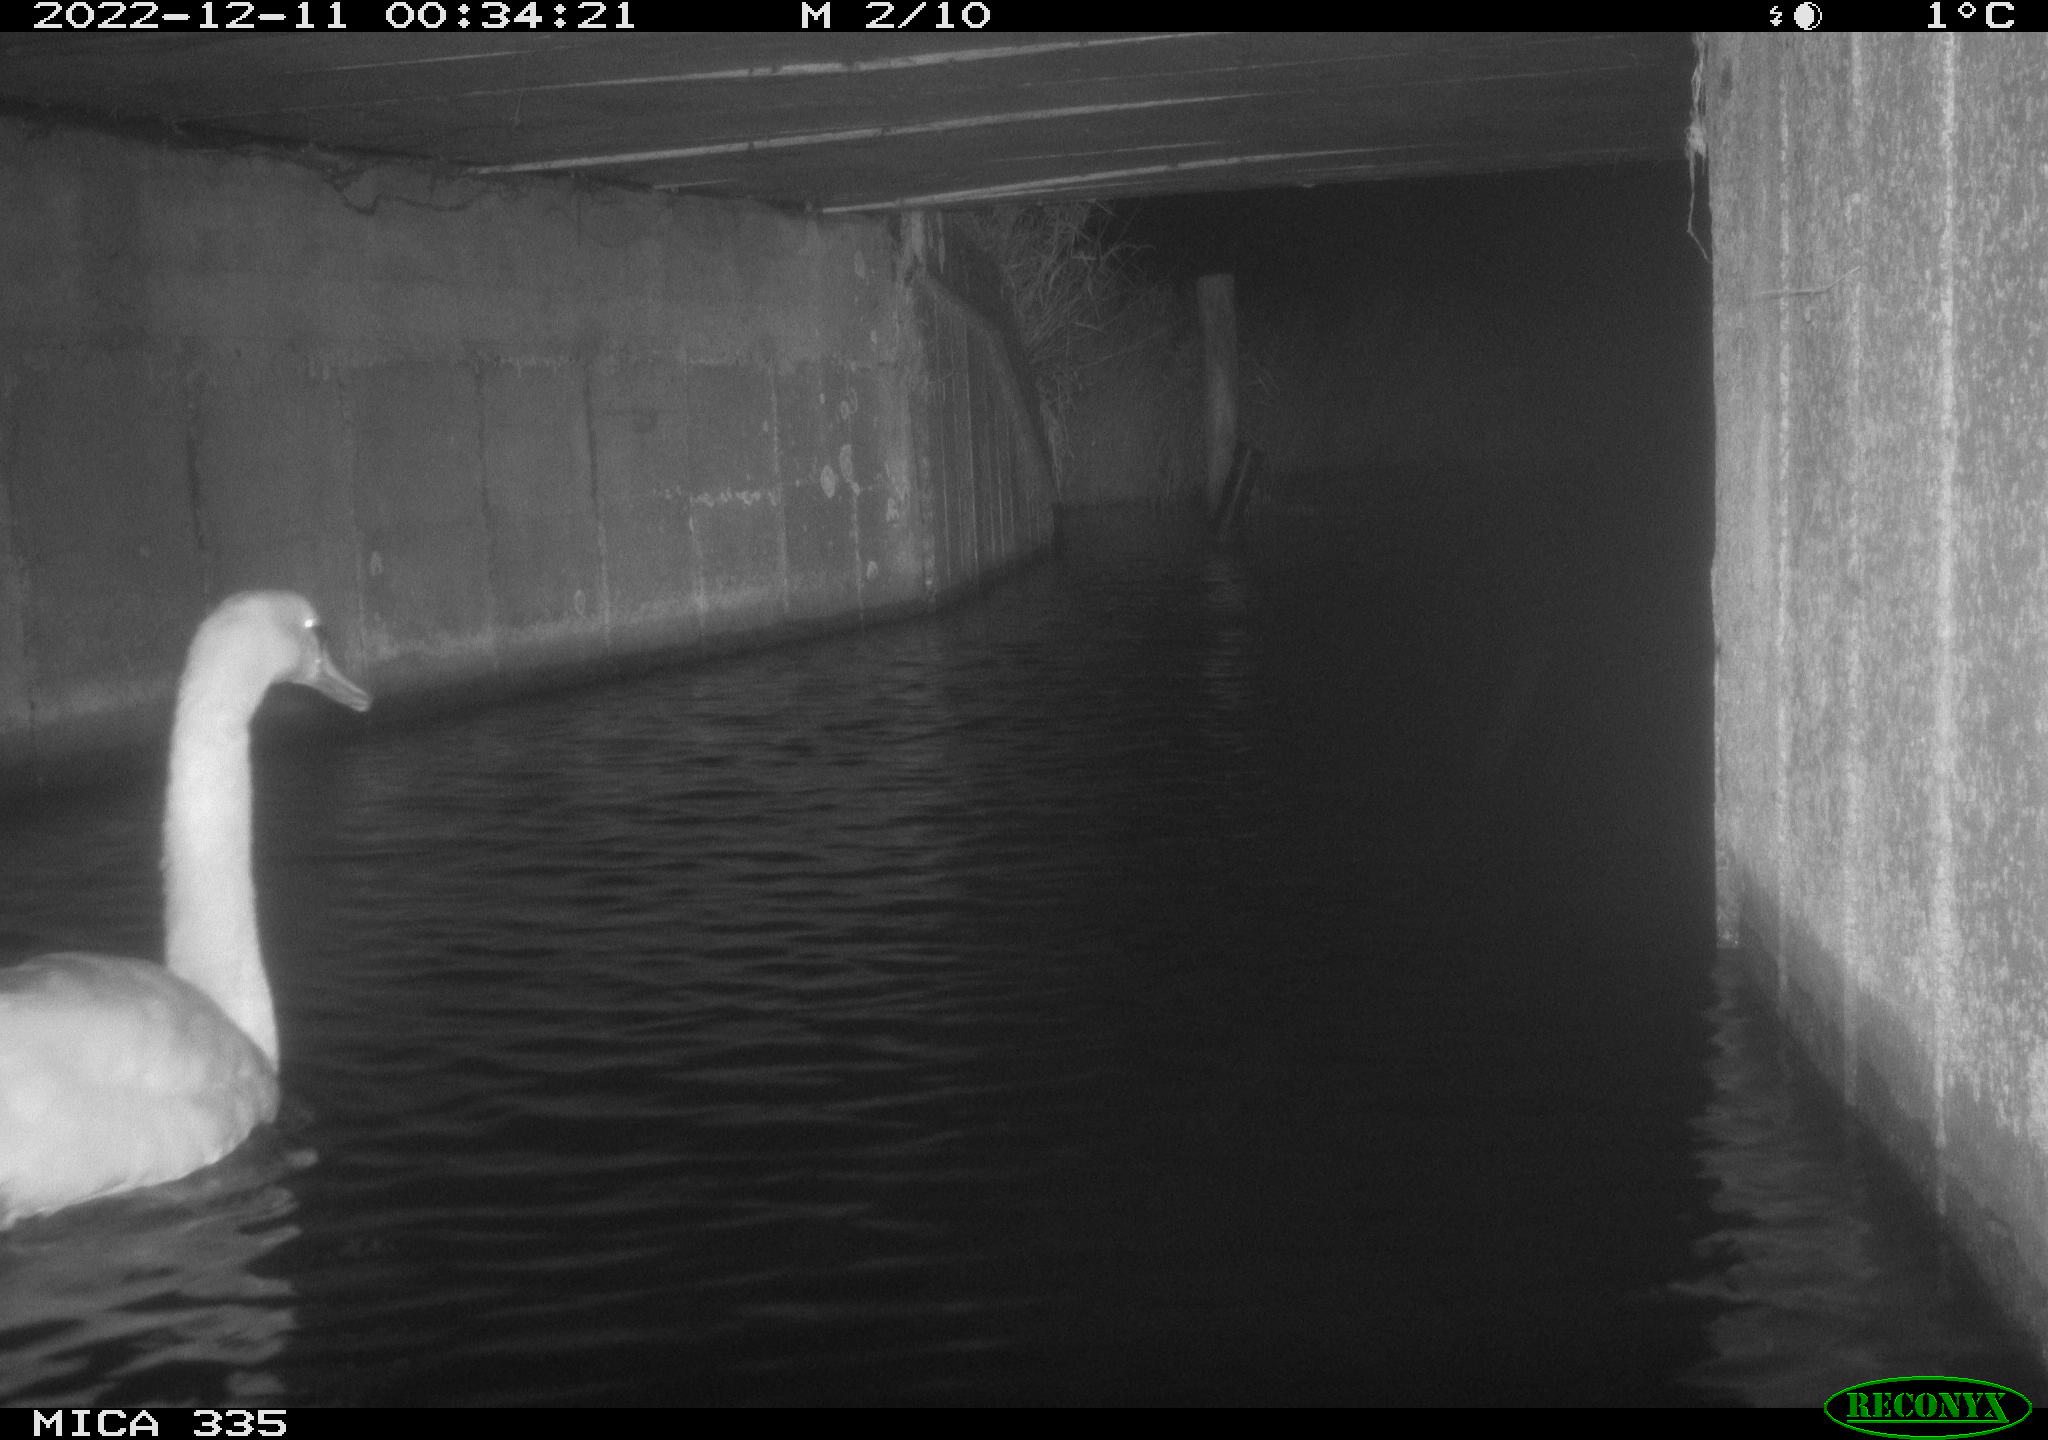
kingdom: Animalia
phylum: Chordata
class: Aves
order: Anseriformes
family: Anatidae
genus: Cygnus
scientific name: Cygnus olor
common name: Mute swan
